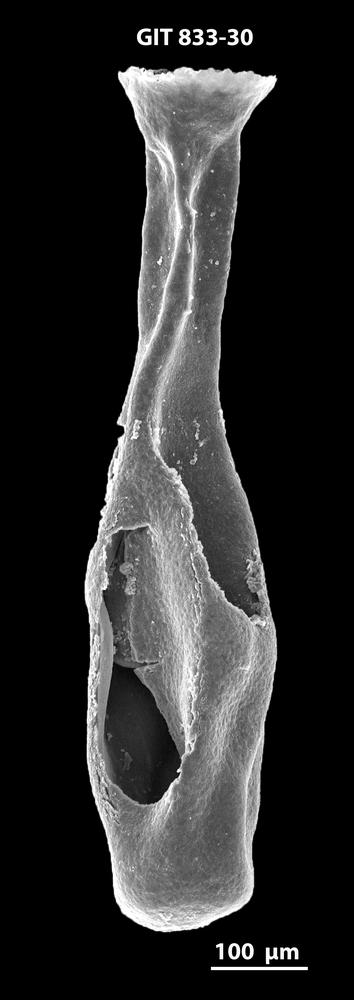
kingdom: Animalia
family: Lagenochitinidae
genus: Lagenochitina
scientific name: Lagenochitina megaesthonica
